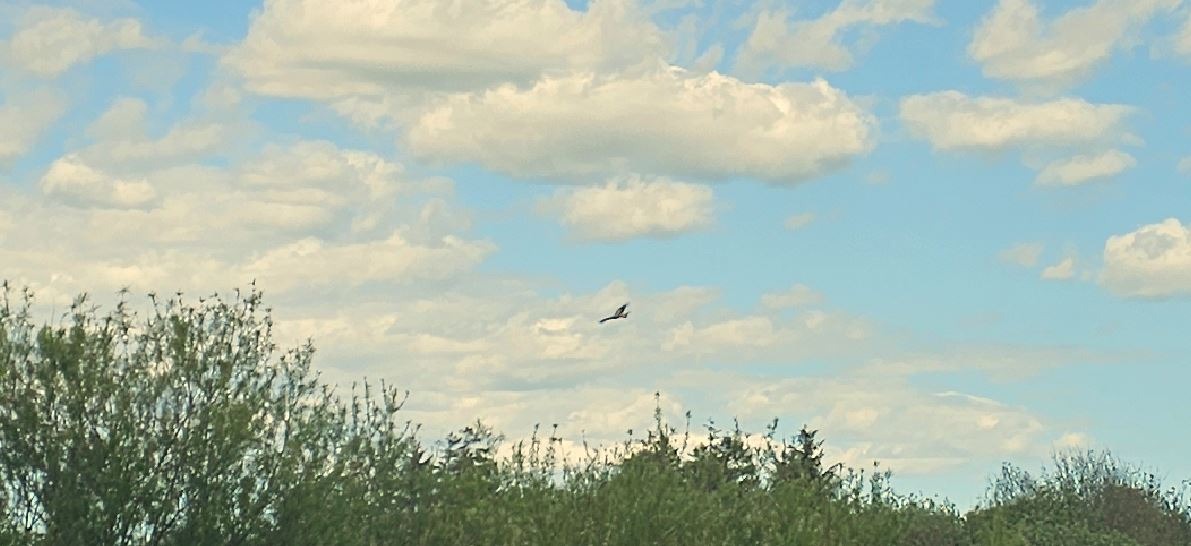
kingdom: Animalia
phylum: Chordata
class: Aves
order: Accipitriformes
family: Accipitridae
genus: Milvus
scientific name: Milvus milvus
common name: Rød glente
